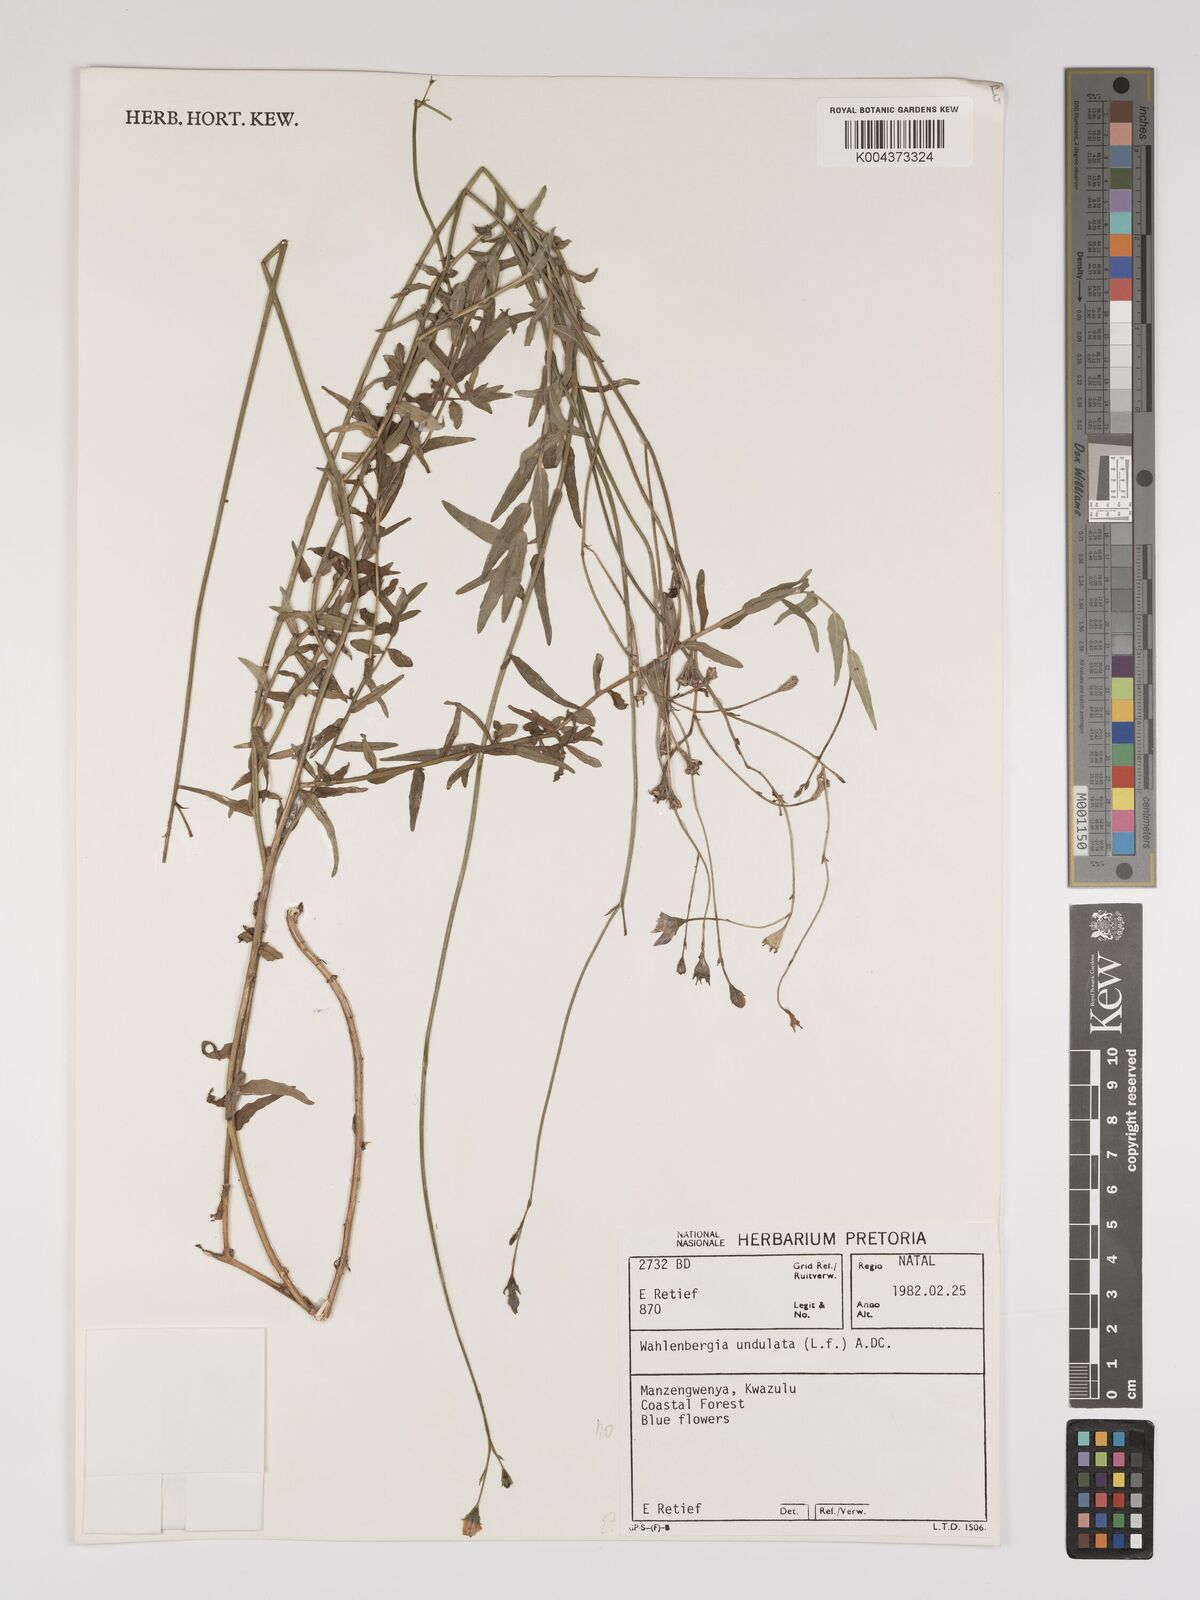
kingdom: Plantae
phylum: Tracheophyta
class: Magnoliopsida
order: Asterales
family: Campanulaceae
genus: Wahlenbergia
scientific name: Wahlenbergia undulata
